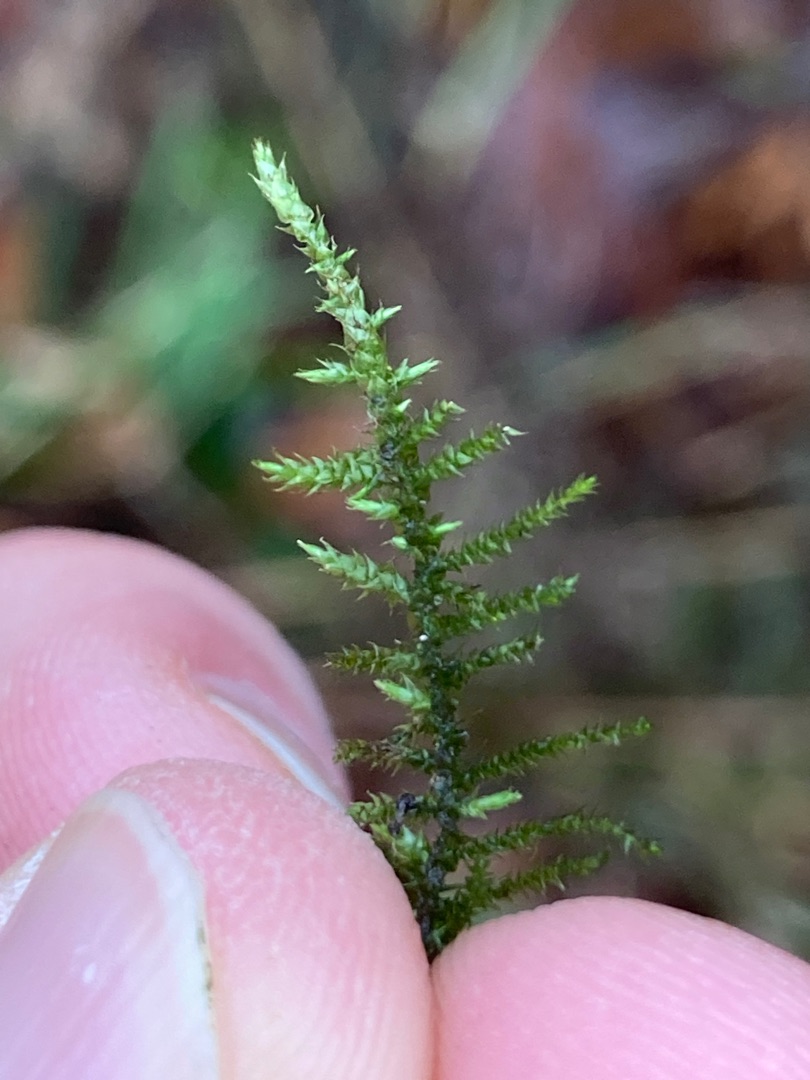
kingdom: Plantae
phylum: Bryophyta
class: Bryopsida
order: Hypnales
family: Amblystegiaceae
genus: Cratoneuron
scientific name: Cratoneuron filicinum
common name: Grøn eremitmos
